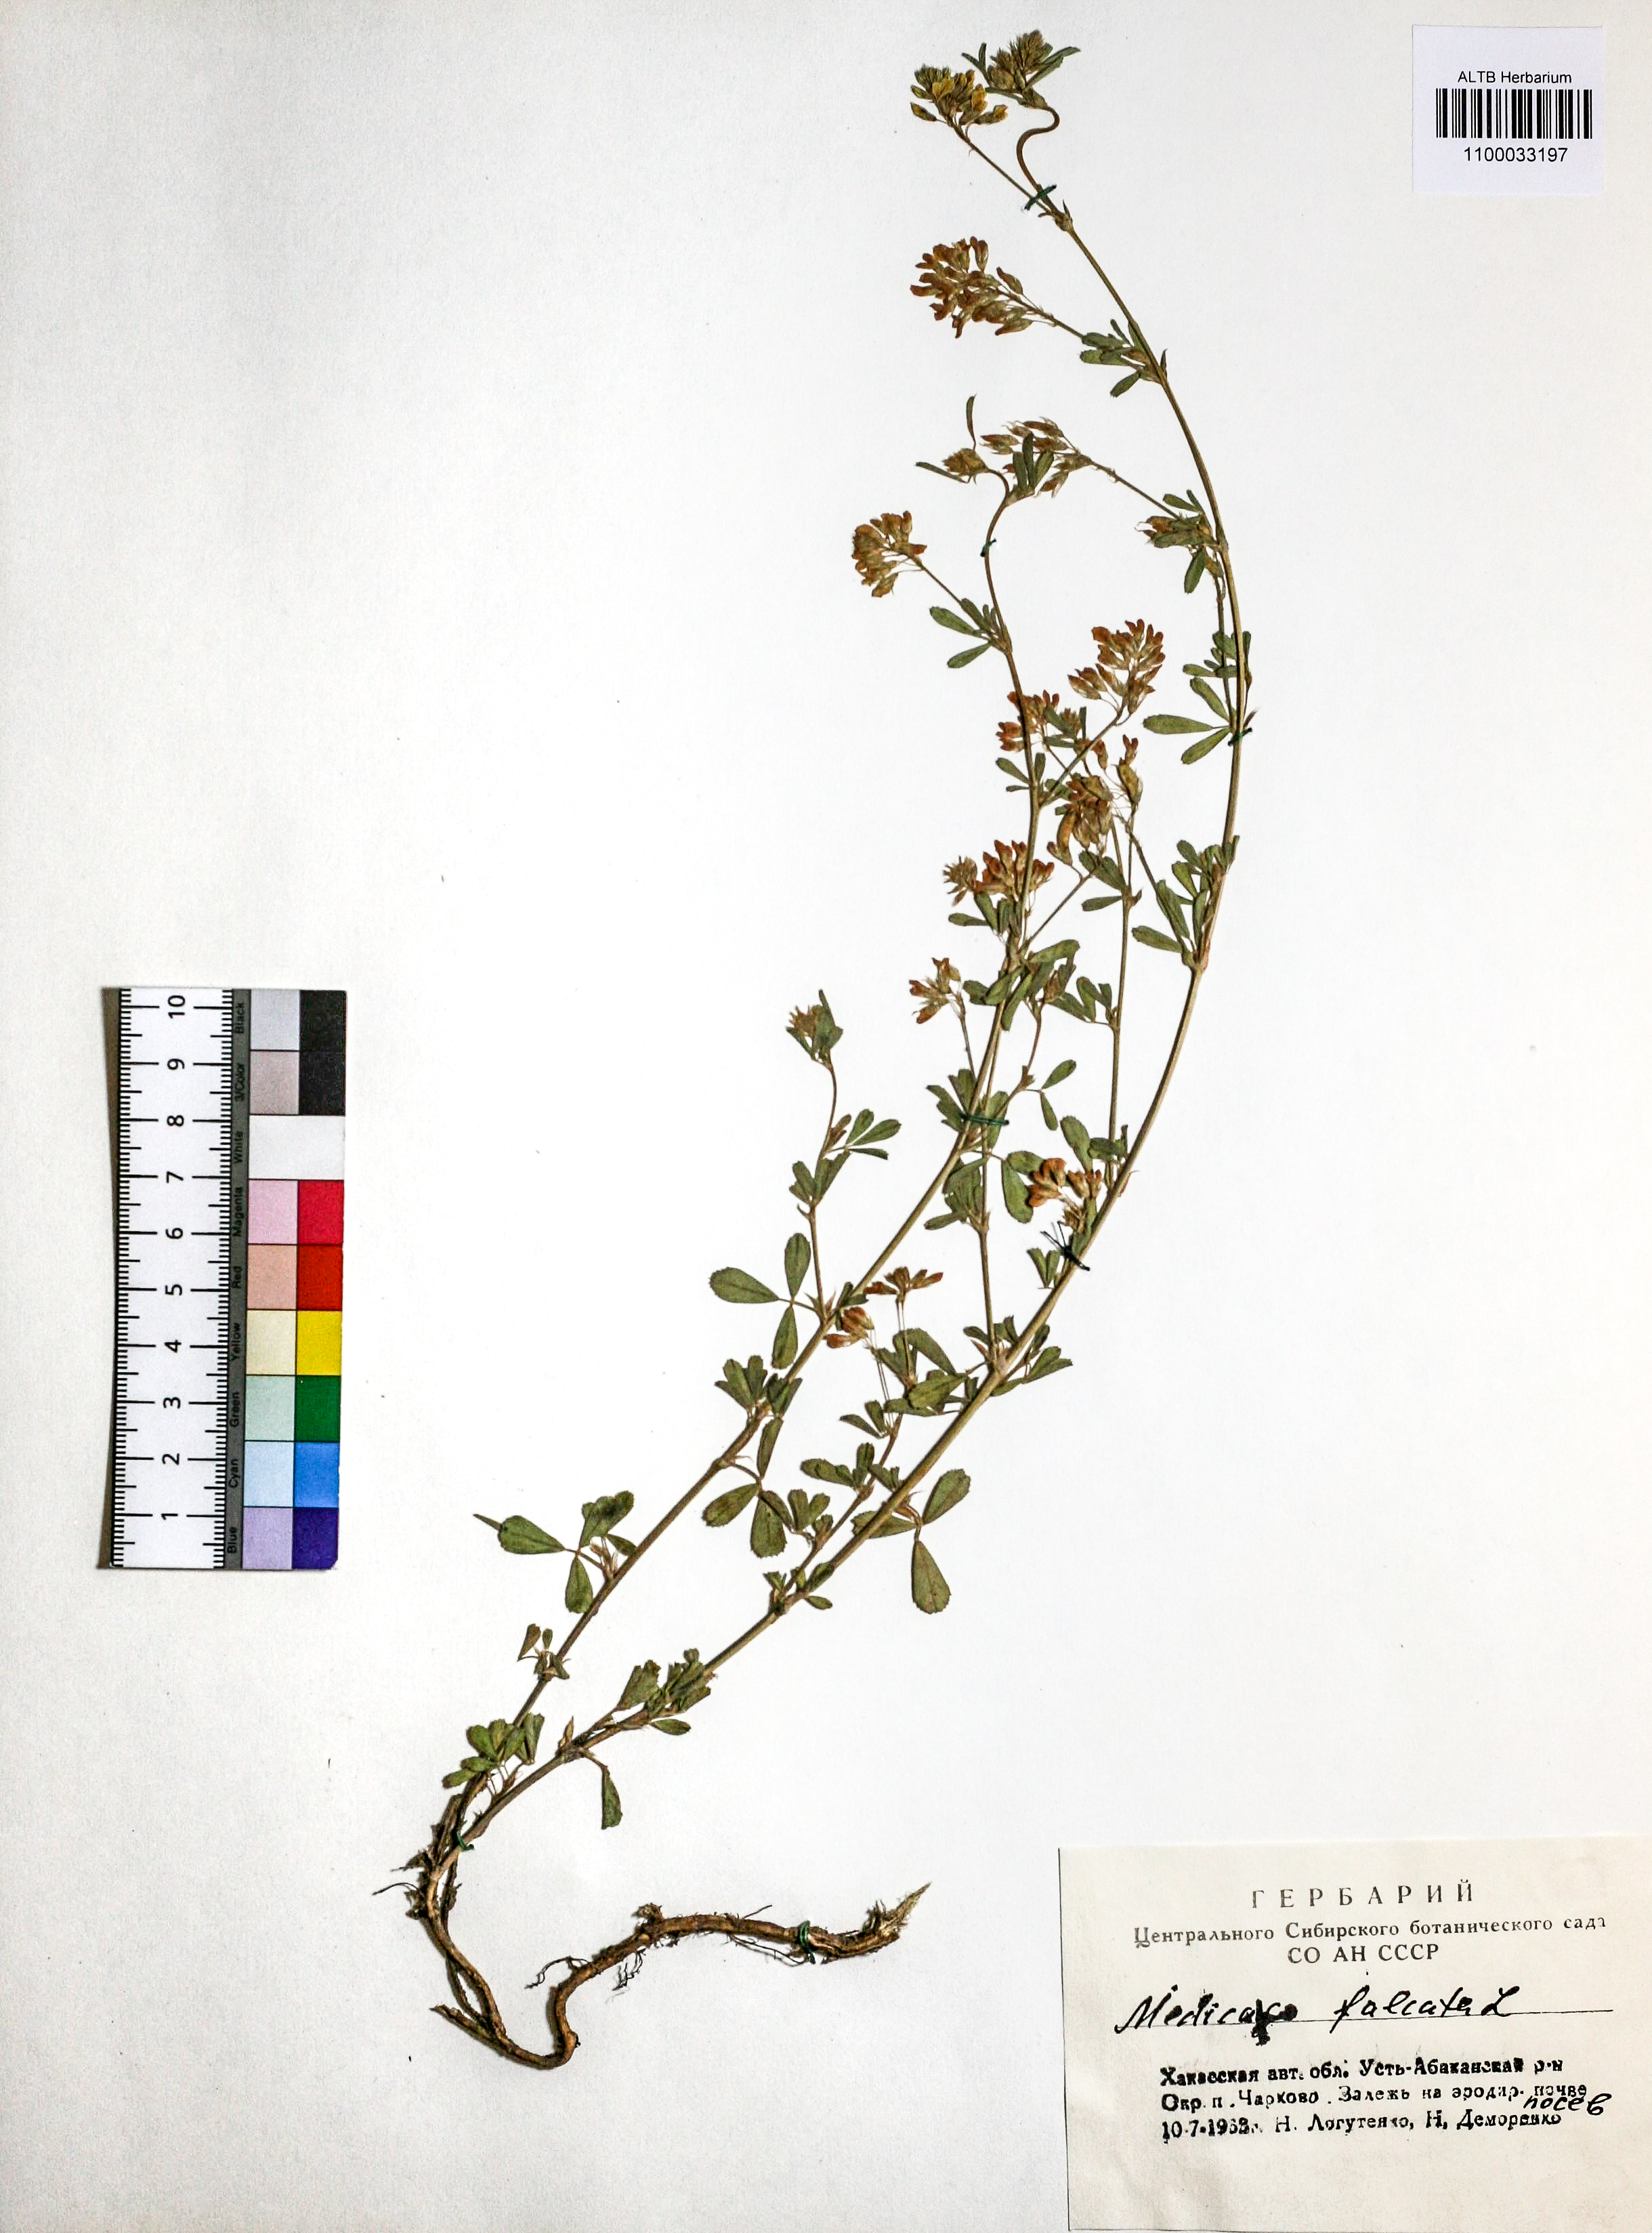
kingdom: Plantae
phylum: Tracheophyta
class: Magnoliopsida
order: Fabales
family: Fabaceae
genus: Medicago
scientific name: Medicago falcata
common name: Sickle medick
